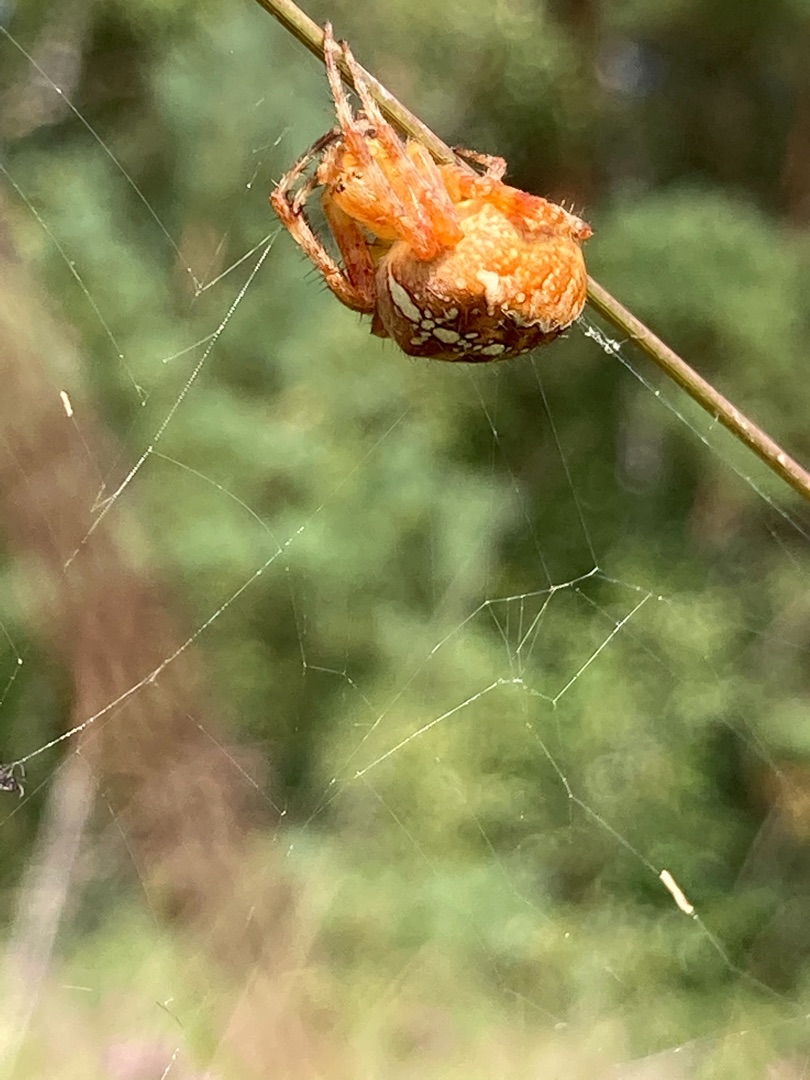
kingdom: Animalia
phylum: Arthropoda
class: Arachnida
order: Araneae
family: Araneidae
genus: Araneus
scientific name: Araneus diadematus
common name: Korsedderkop
